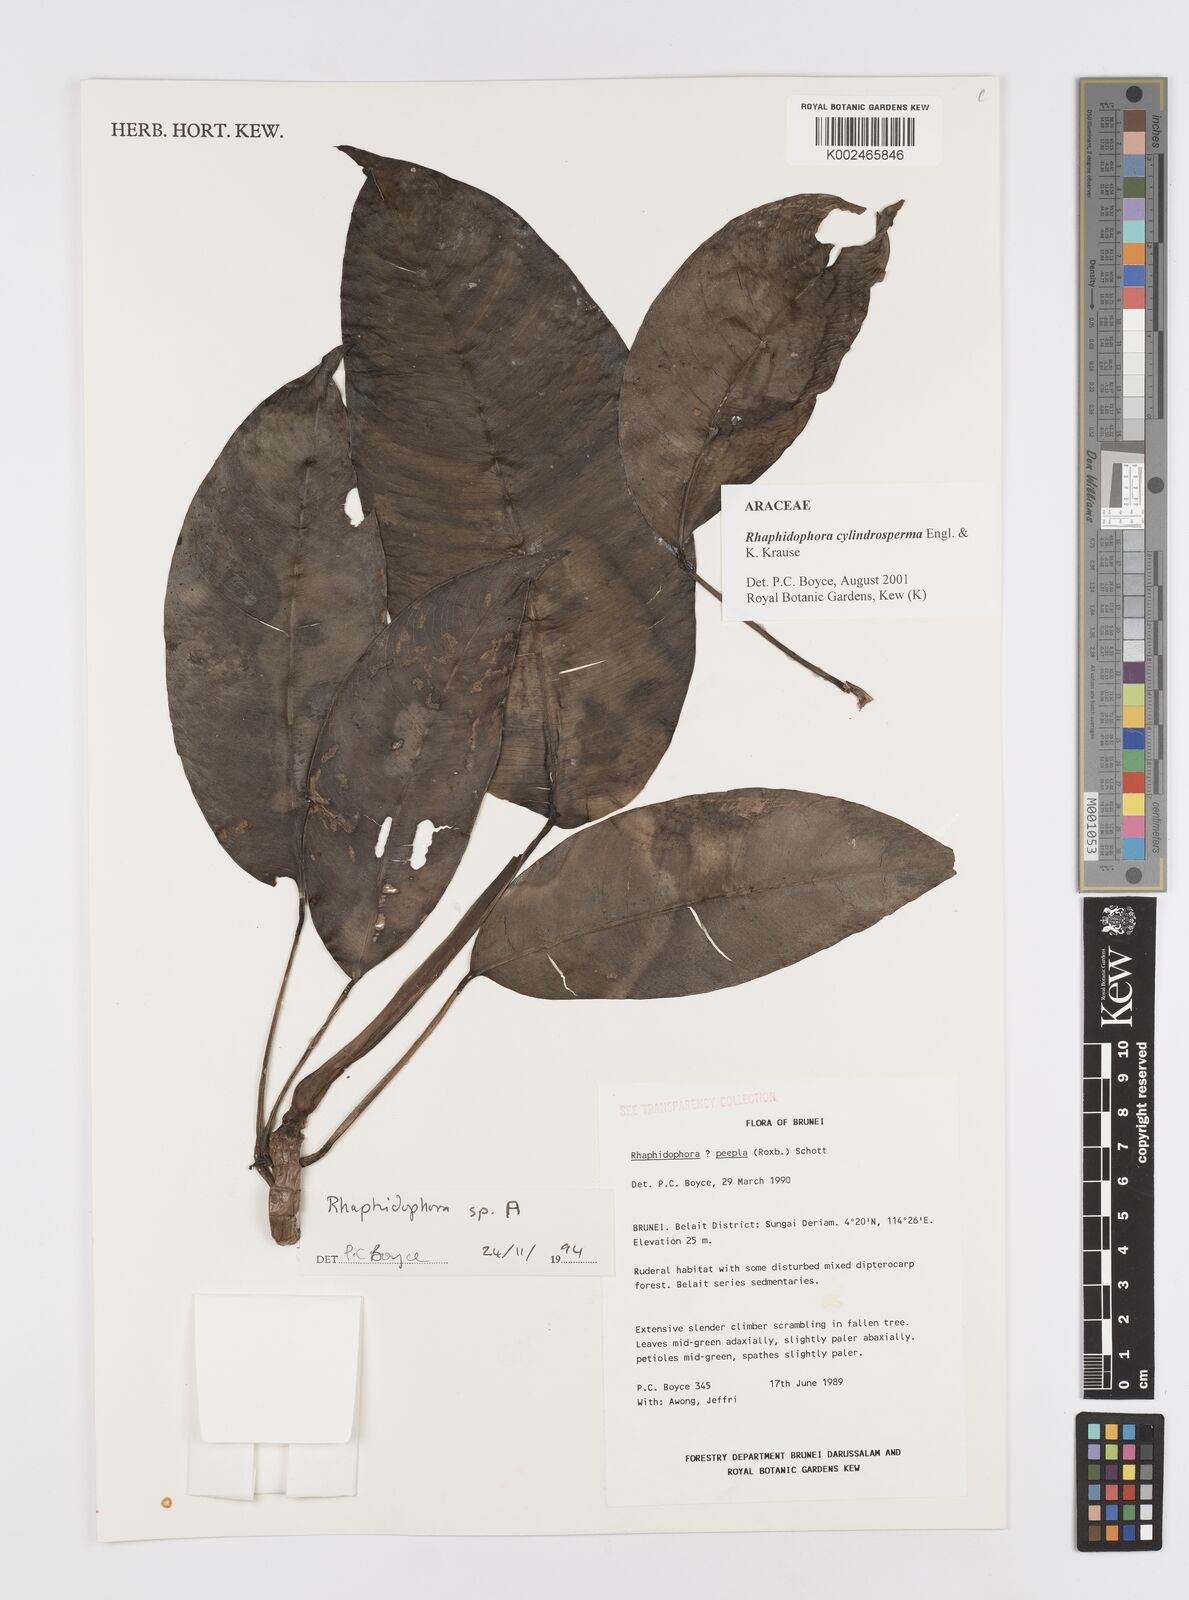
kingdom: Plantae
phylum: Tracheophyta
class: Liliopsida
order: Alismatales
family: Araceae
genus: Rhaphidophora
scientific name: Rhaphidophora cylindrosperma
